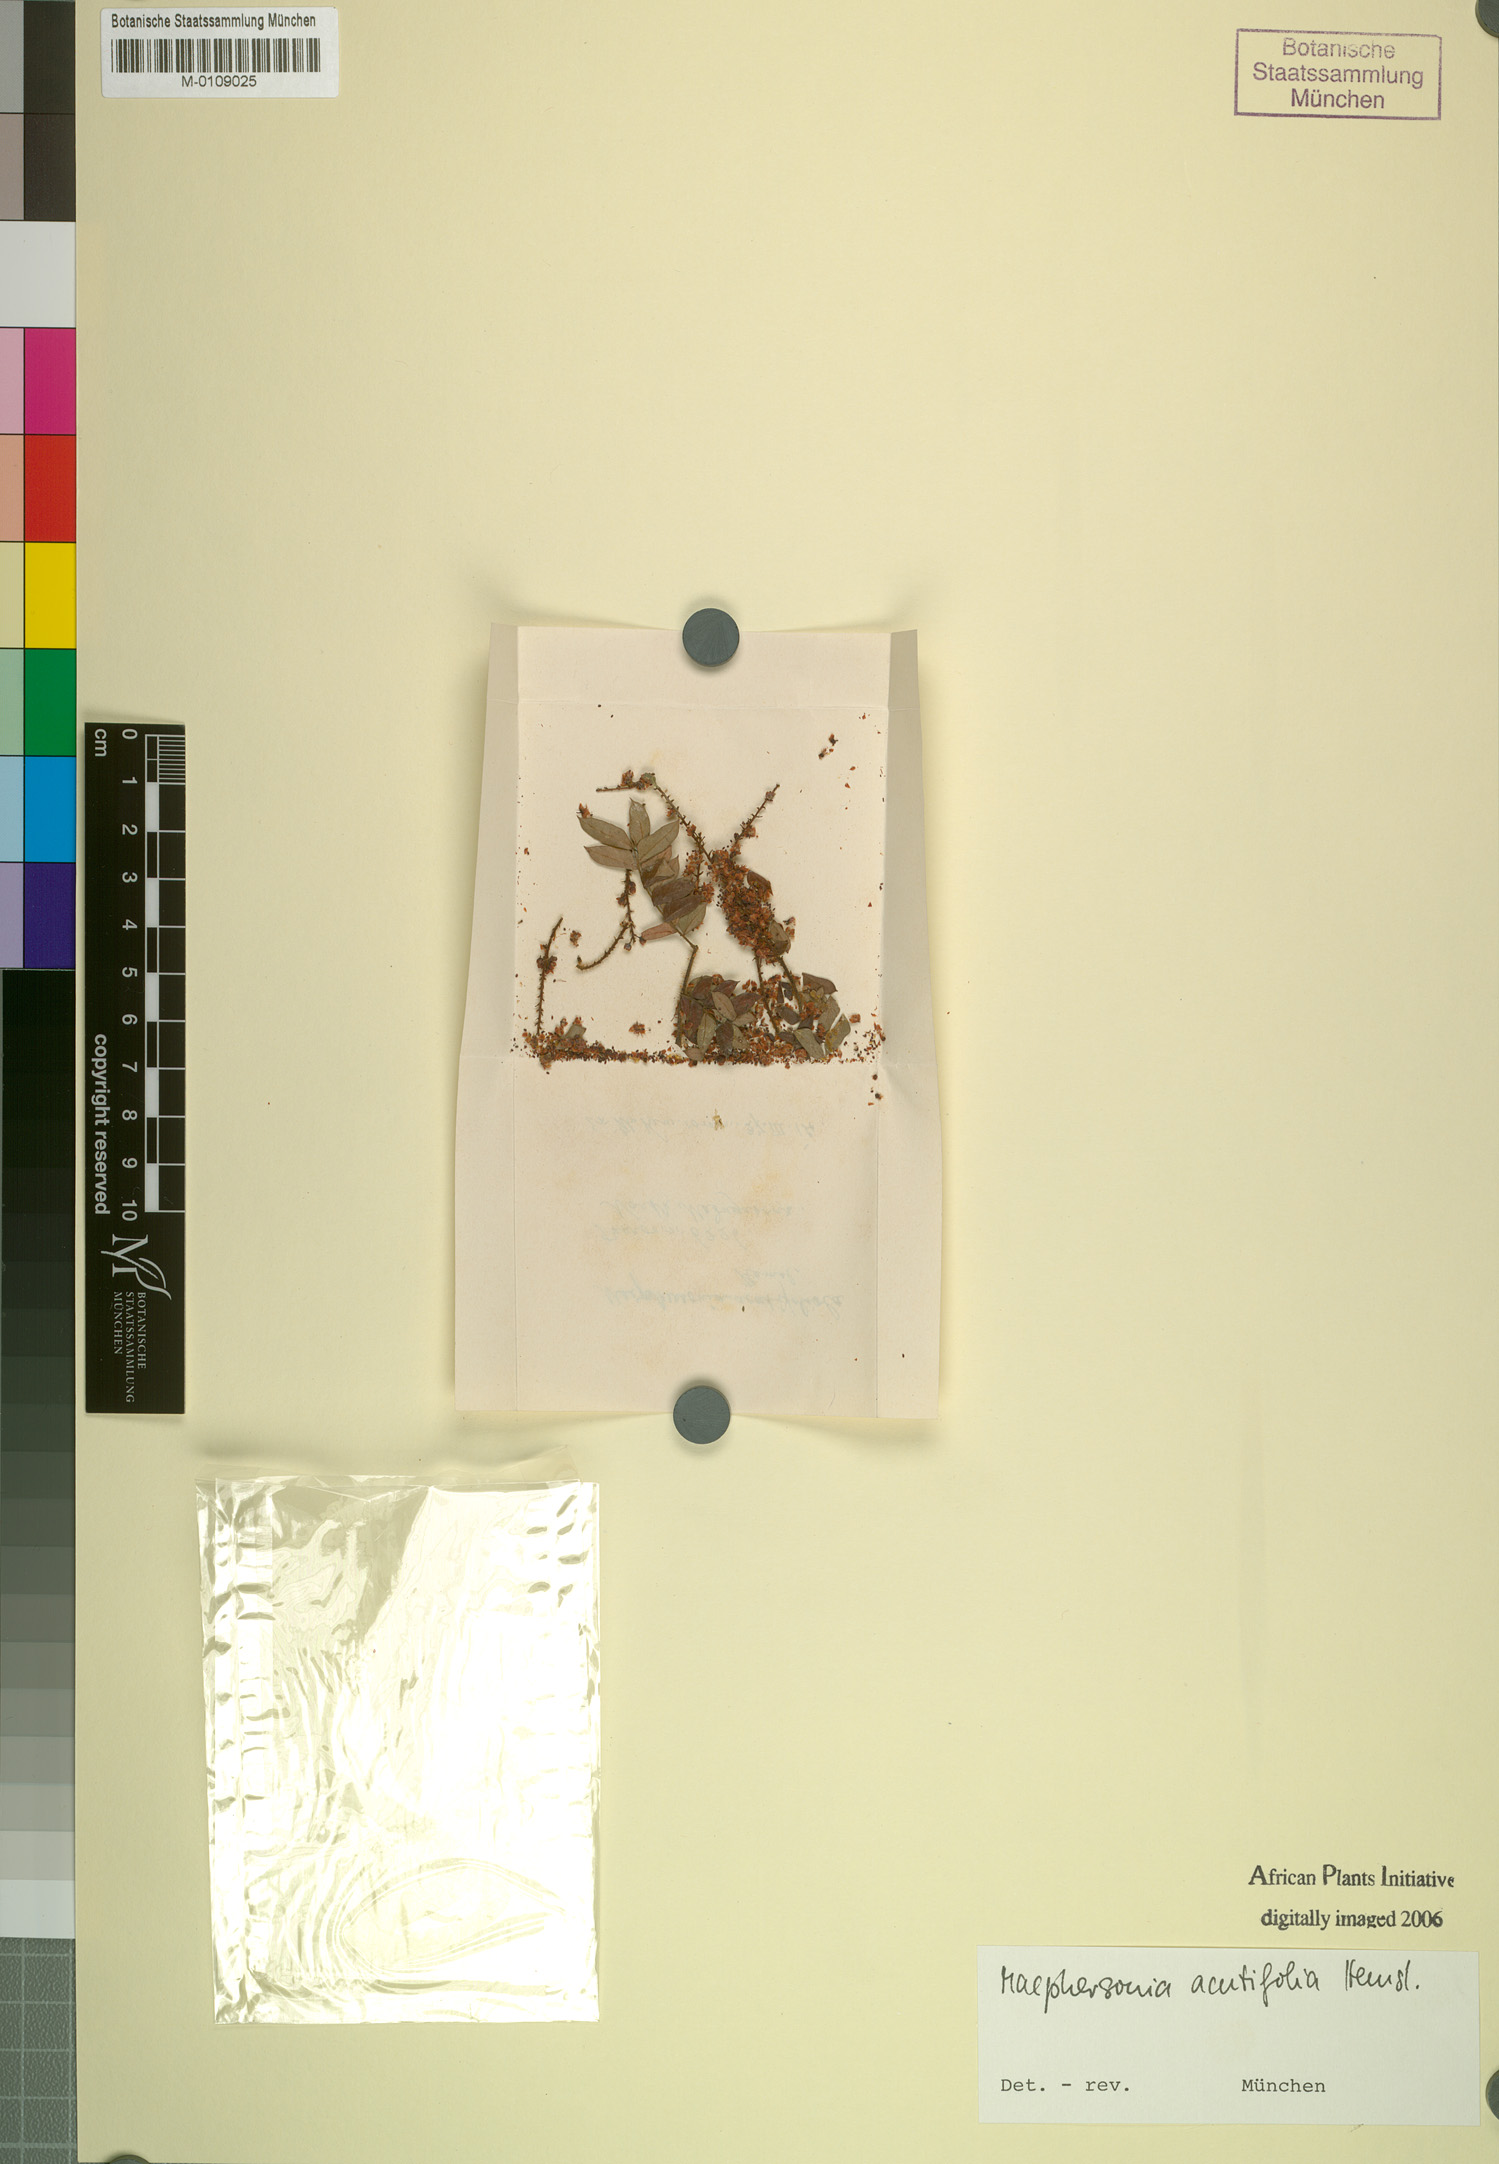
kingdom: Plantae
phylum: Tracheophyta
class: Magnoliopsida
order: Sapindales
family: Sapindaceae
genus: Macphersonia
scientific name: Macphersonia gracilis
